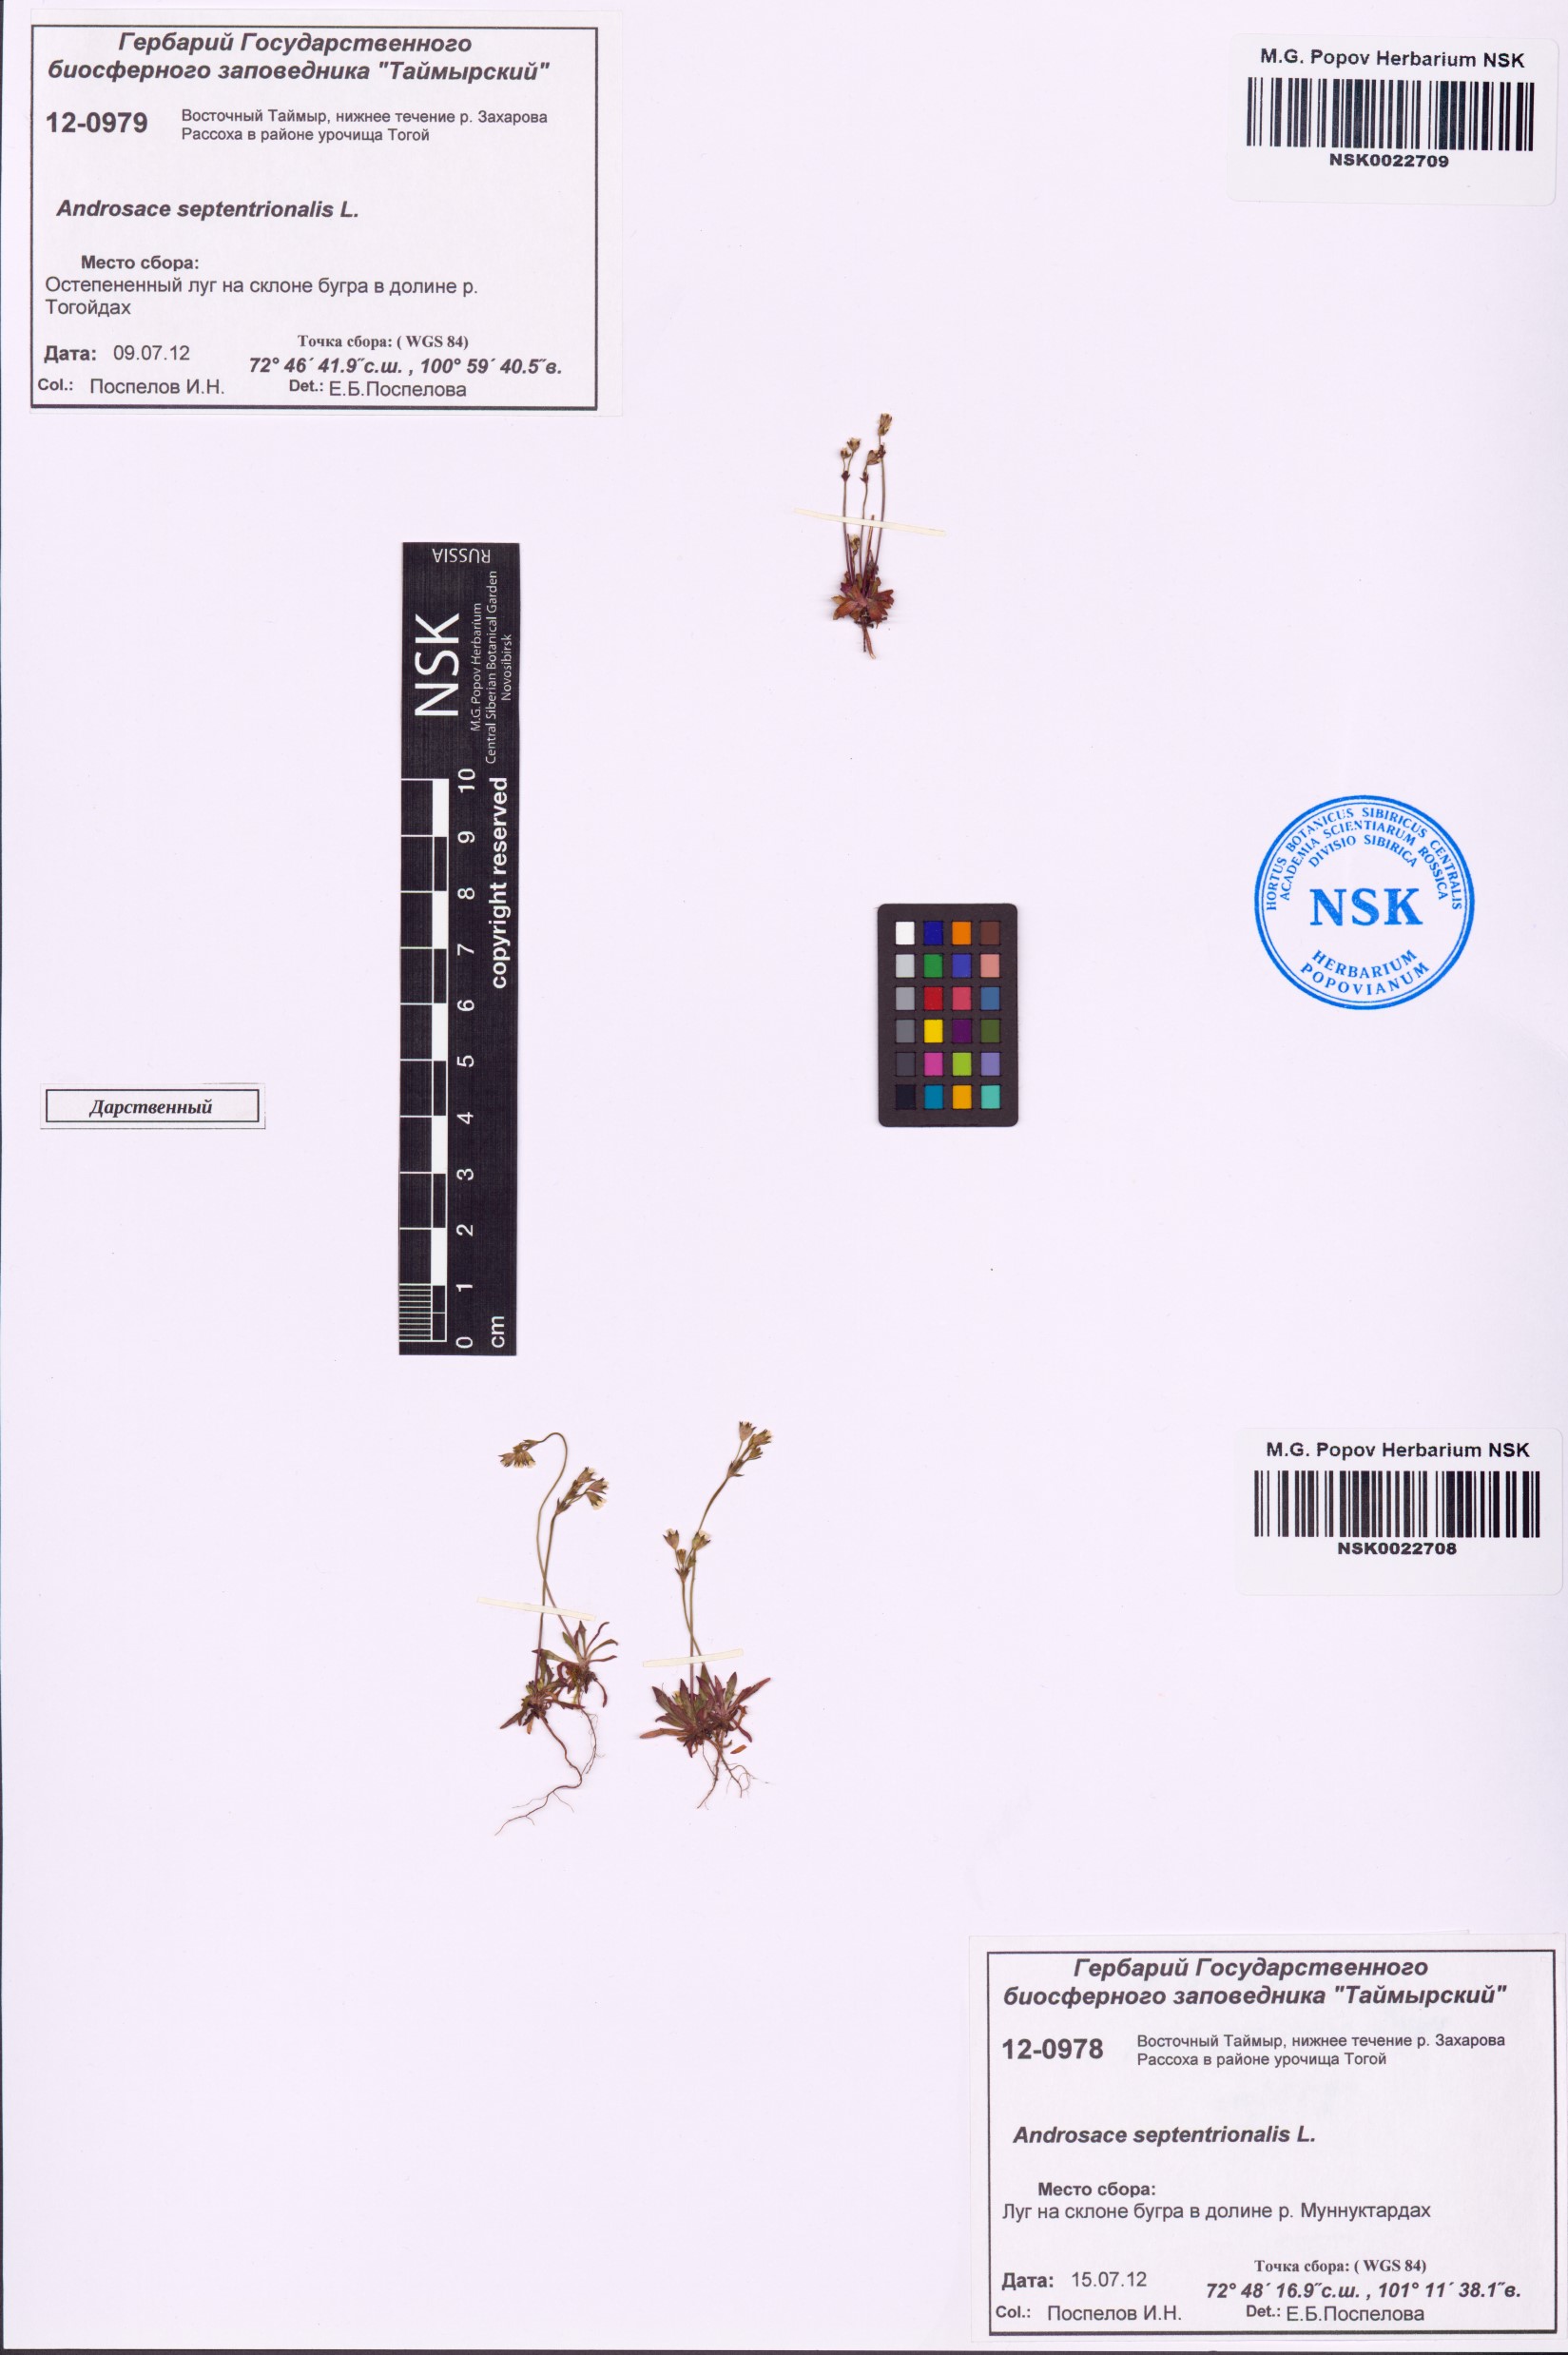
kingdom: Plantae
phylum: Tracheophyta
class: Magnoliopsida
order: Ericales
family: Primulaceae
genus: Androsace
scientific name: Androsace septentrionalis
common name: Hairy northern fairy-candelabra
